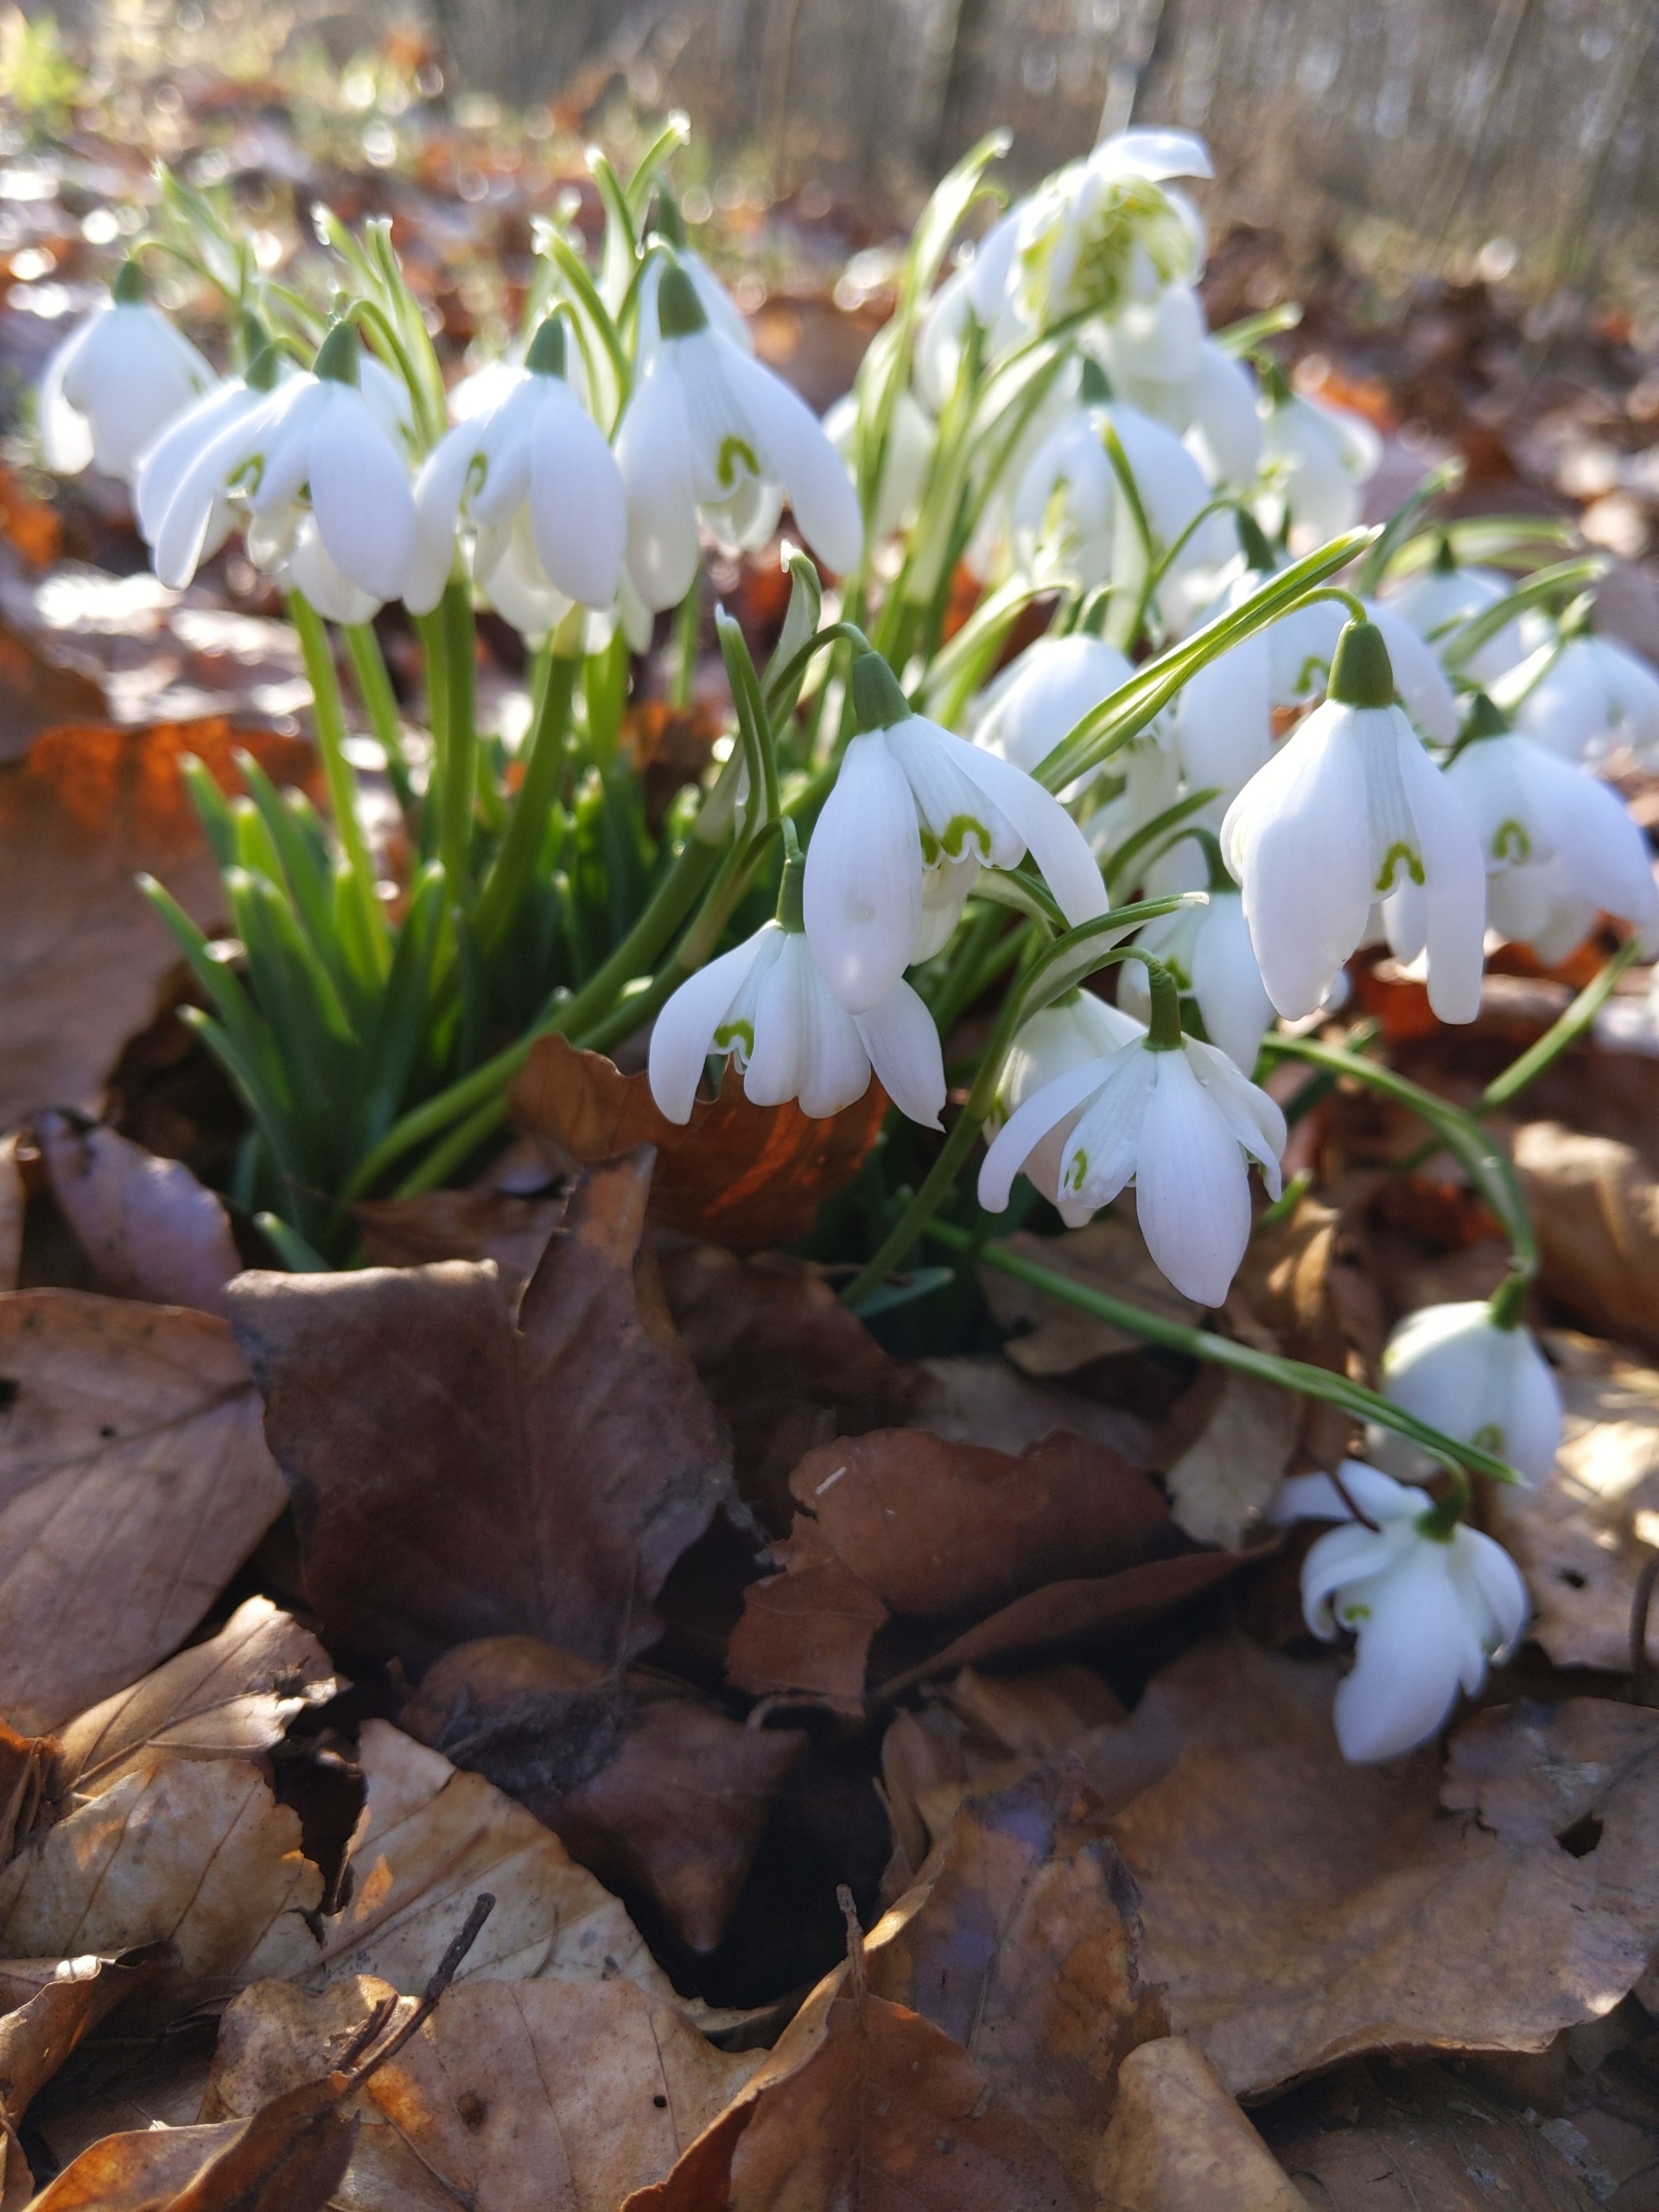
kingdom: Plantae
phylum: Tracheophyta
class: Liliopsida
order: Asparagales
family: Amaryllidaceae
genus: Galanthus
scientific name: Galanthus nivalis
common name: Vintergæk
